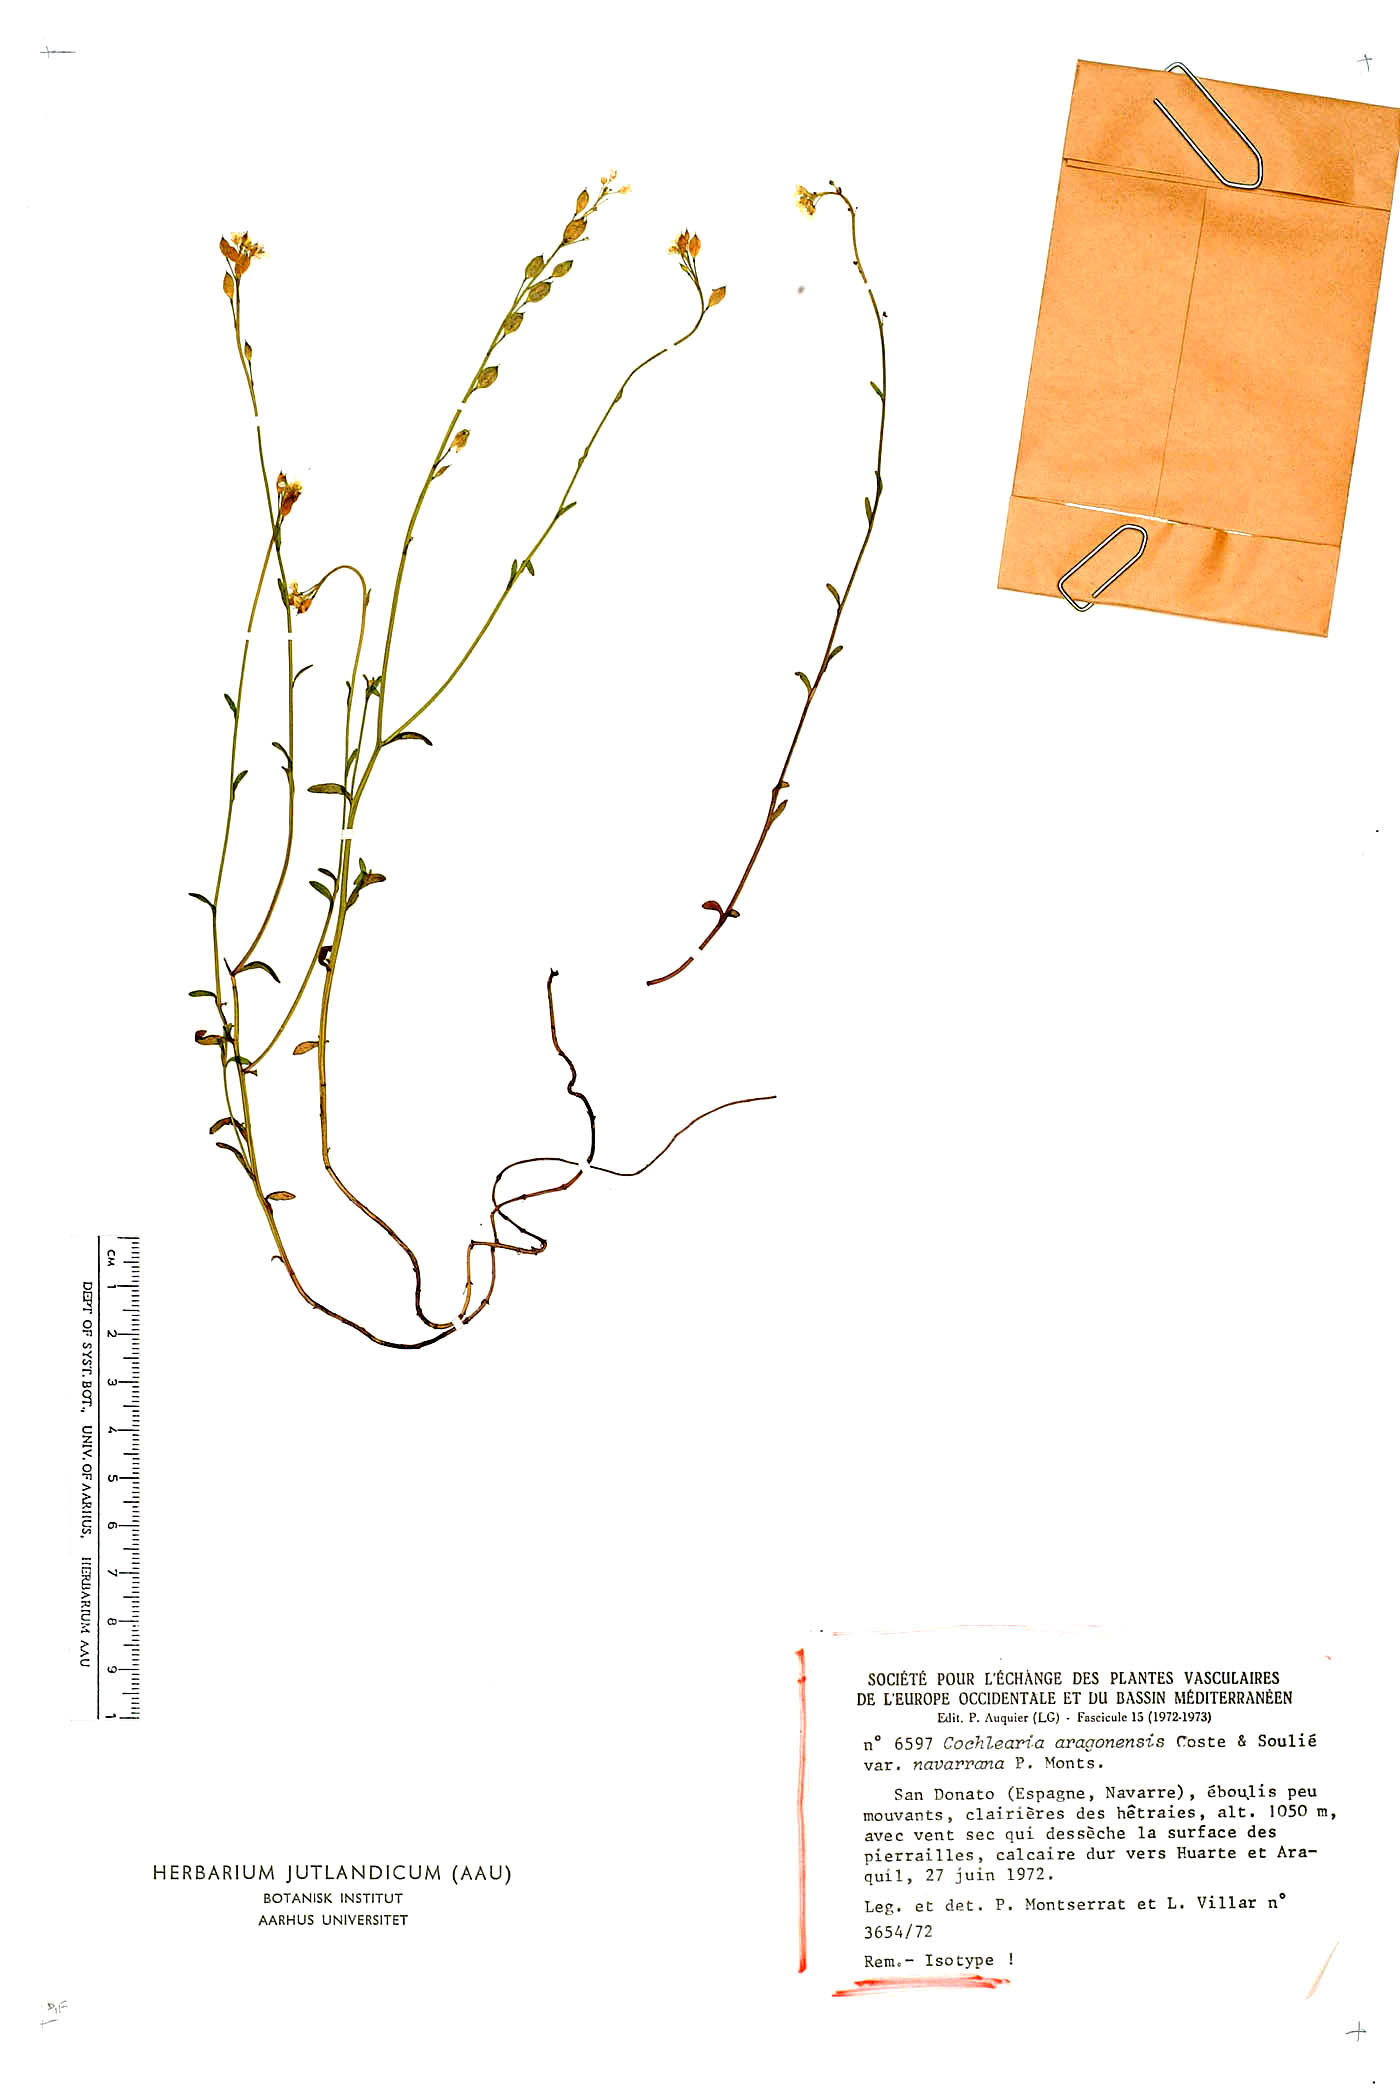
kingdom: Plantae
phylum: Tracheophyta
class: Magnoliopsida
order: Brassicales
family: Brassicaceae
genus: Ionopsidium
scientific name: Ionopsidium aragonensis
